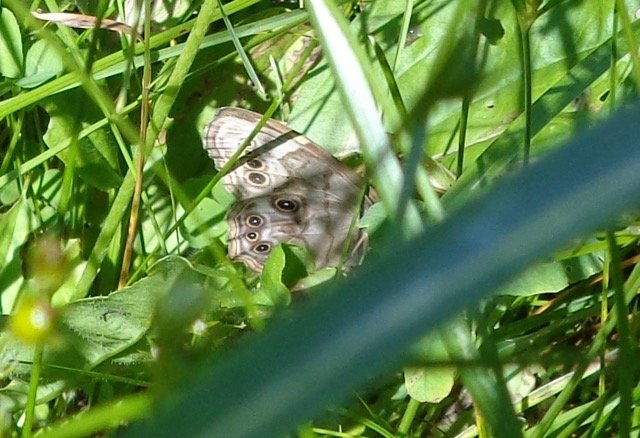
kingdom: Animalia
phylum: Arthropoda
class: Insecta
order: Lepidoptera
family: Nymphalidae
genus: Lethe
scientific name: Lethe anthedon
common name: Northern Pearly-Eye
